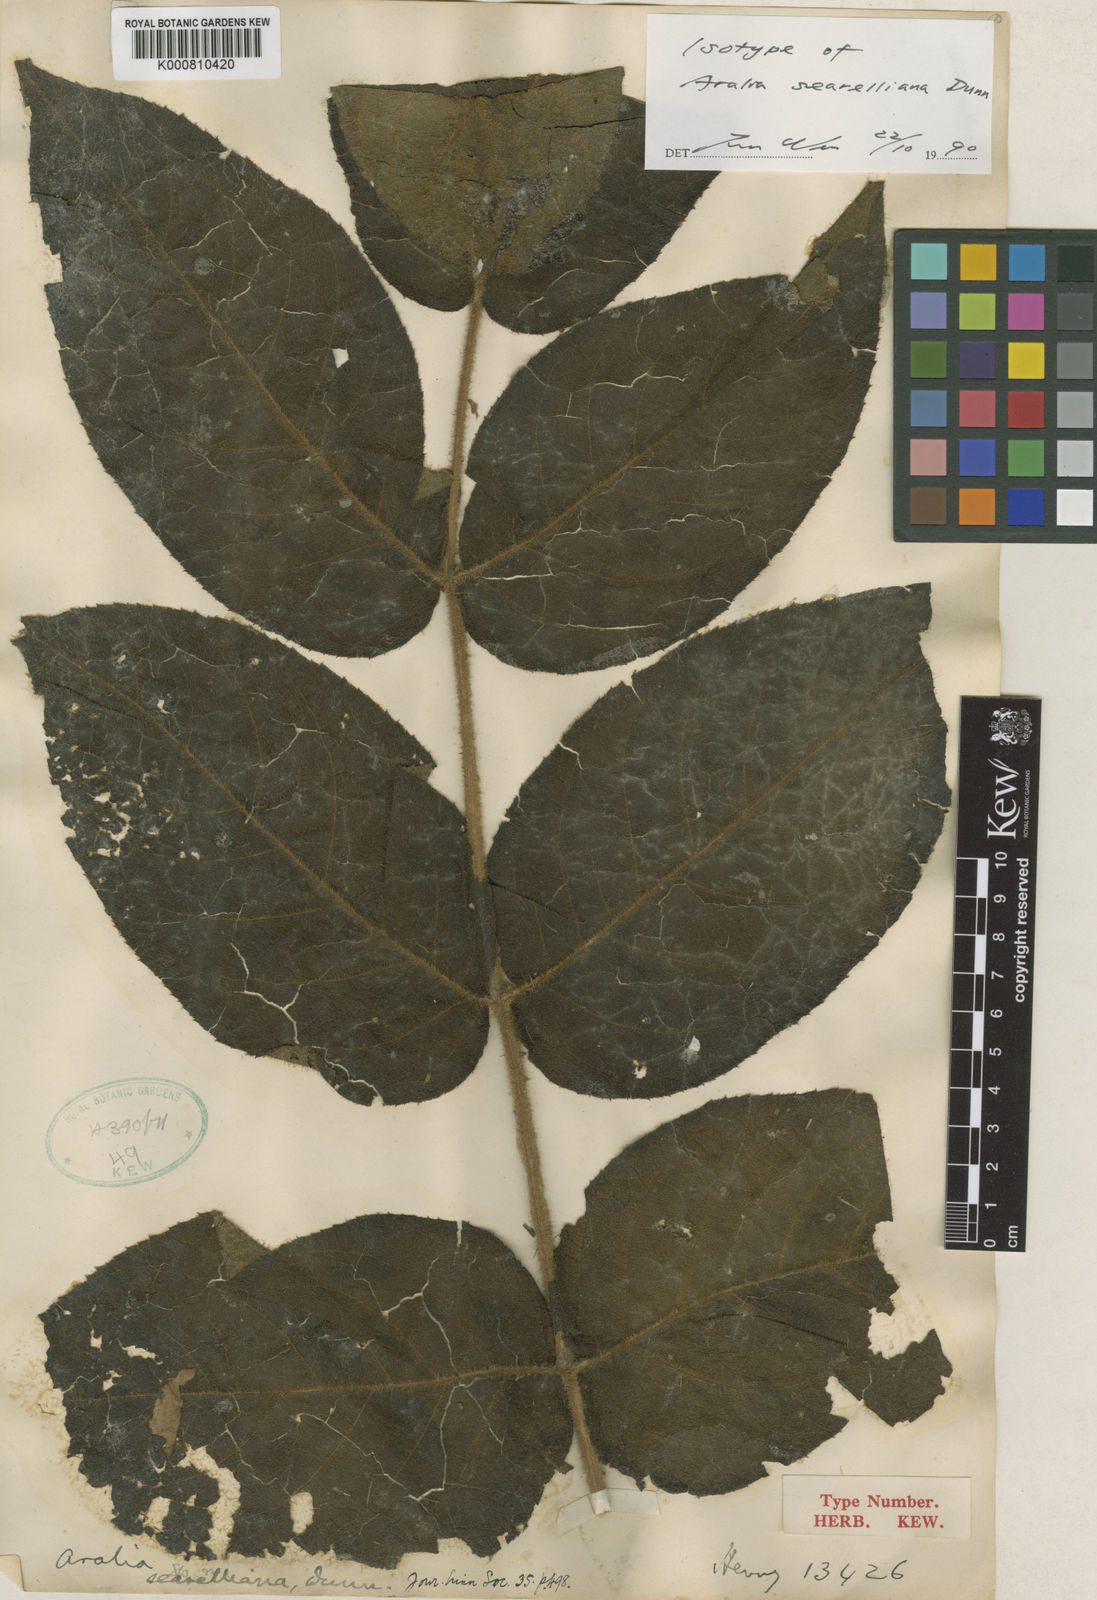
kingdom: Plantae
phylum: Tracheophyta
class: Magnoliopsida
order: Apiales
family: Araliaceae
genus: Aralia
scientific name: Aralia searelliana
